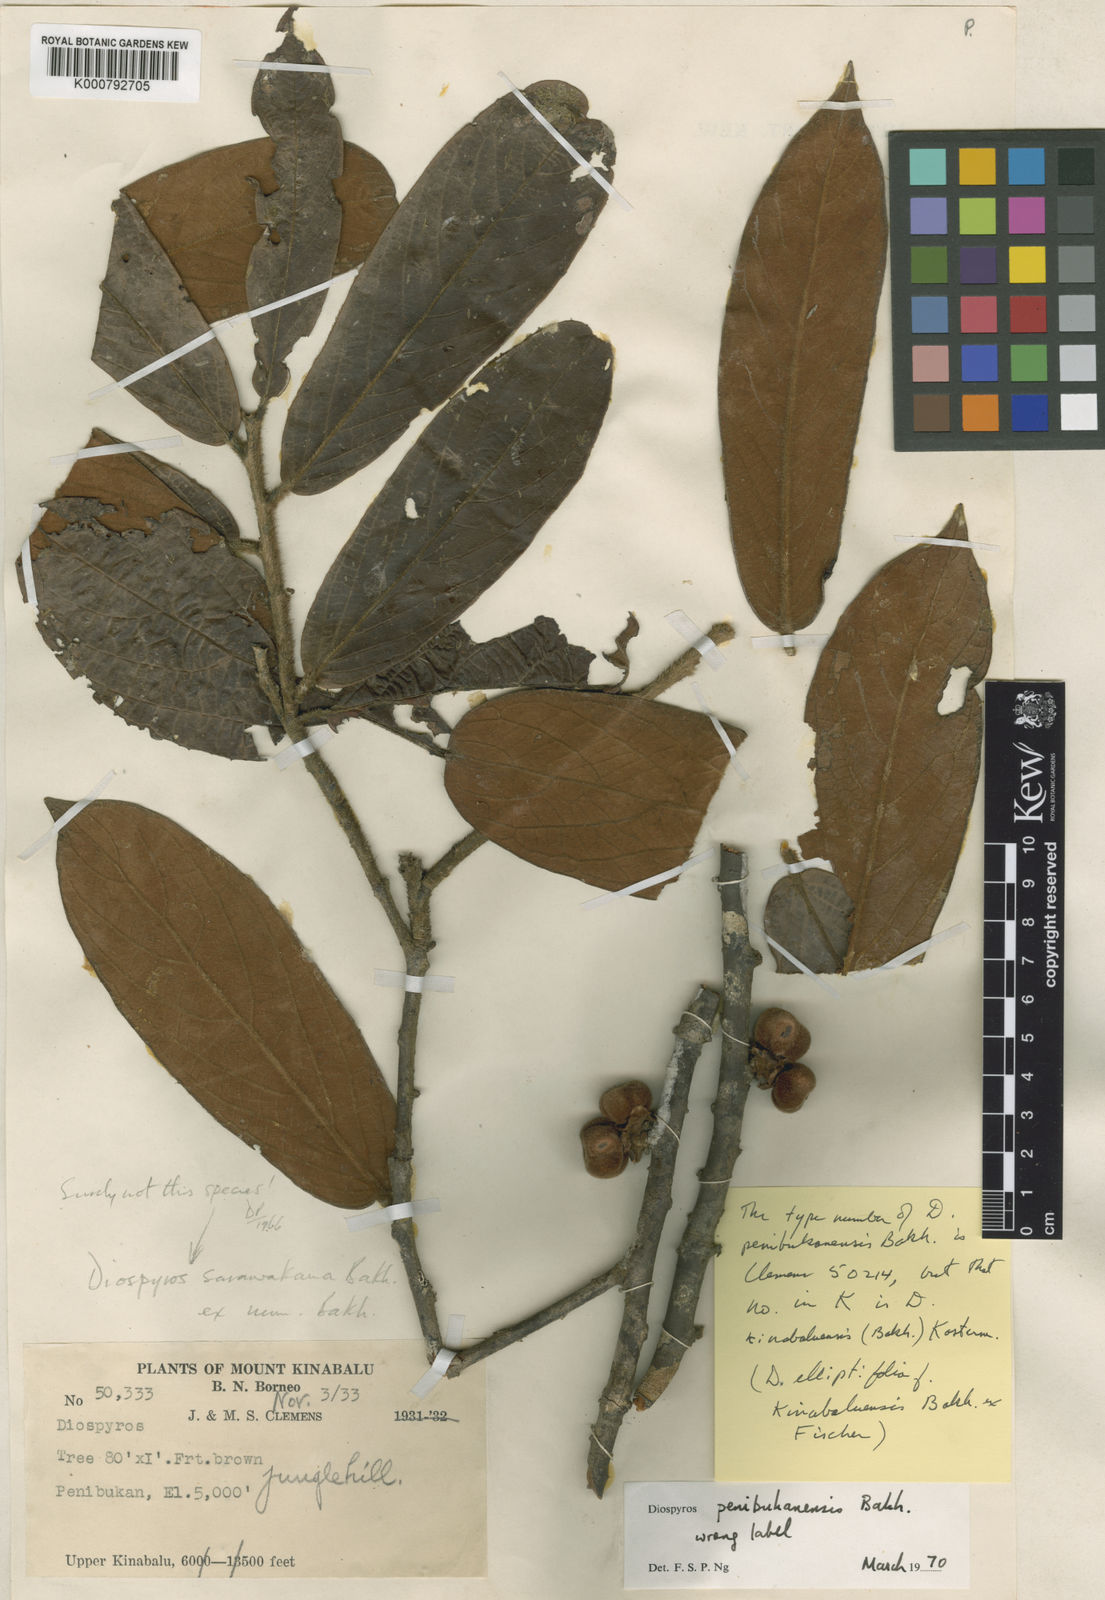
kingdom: Plantae
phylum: Tracheophyta
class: Magnoliopsida
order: Ericales
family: Ebenaceae
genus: Diospyros
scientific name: Diospyros penibukanensis
